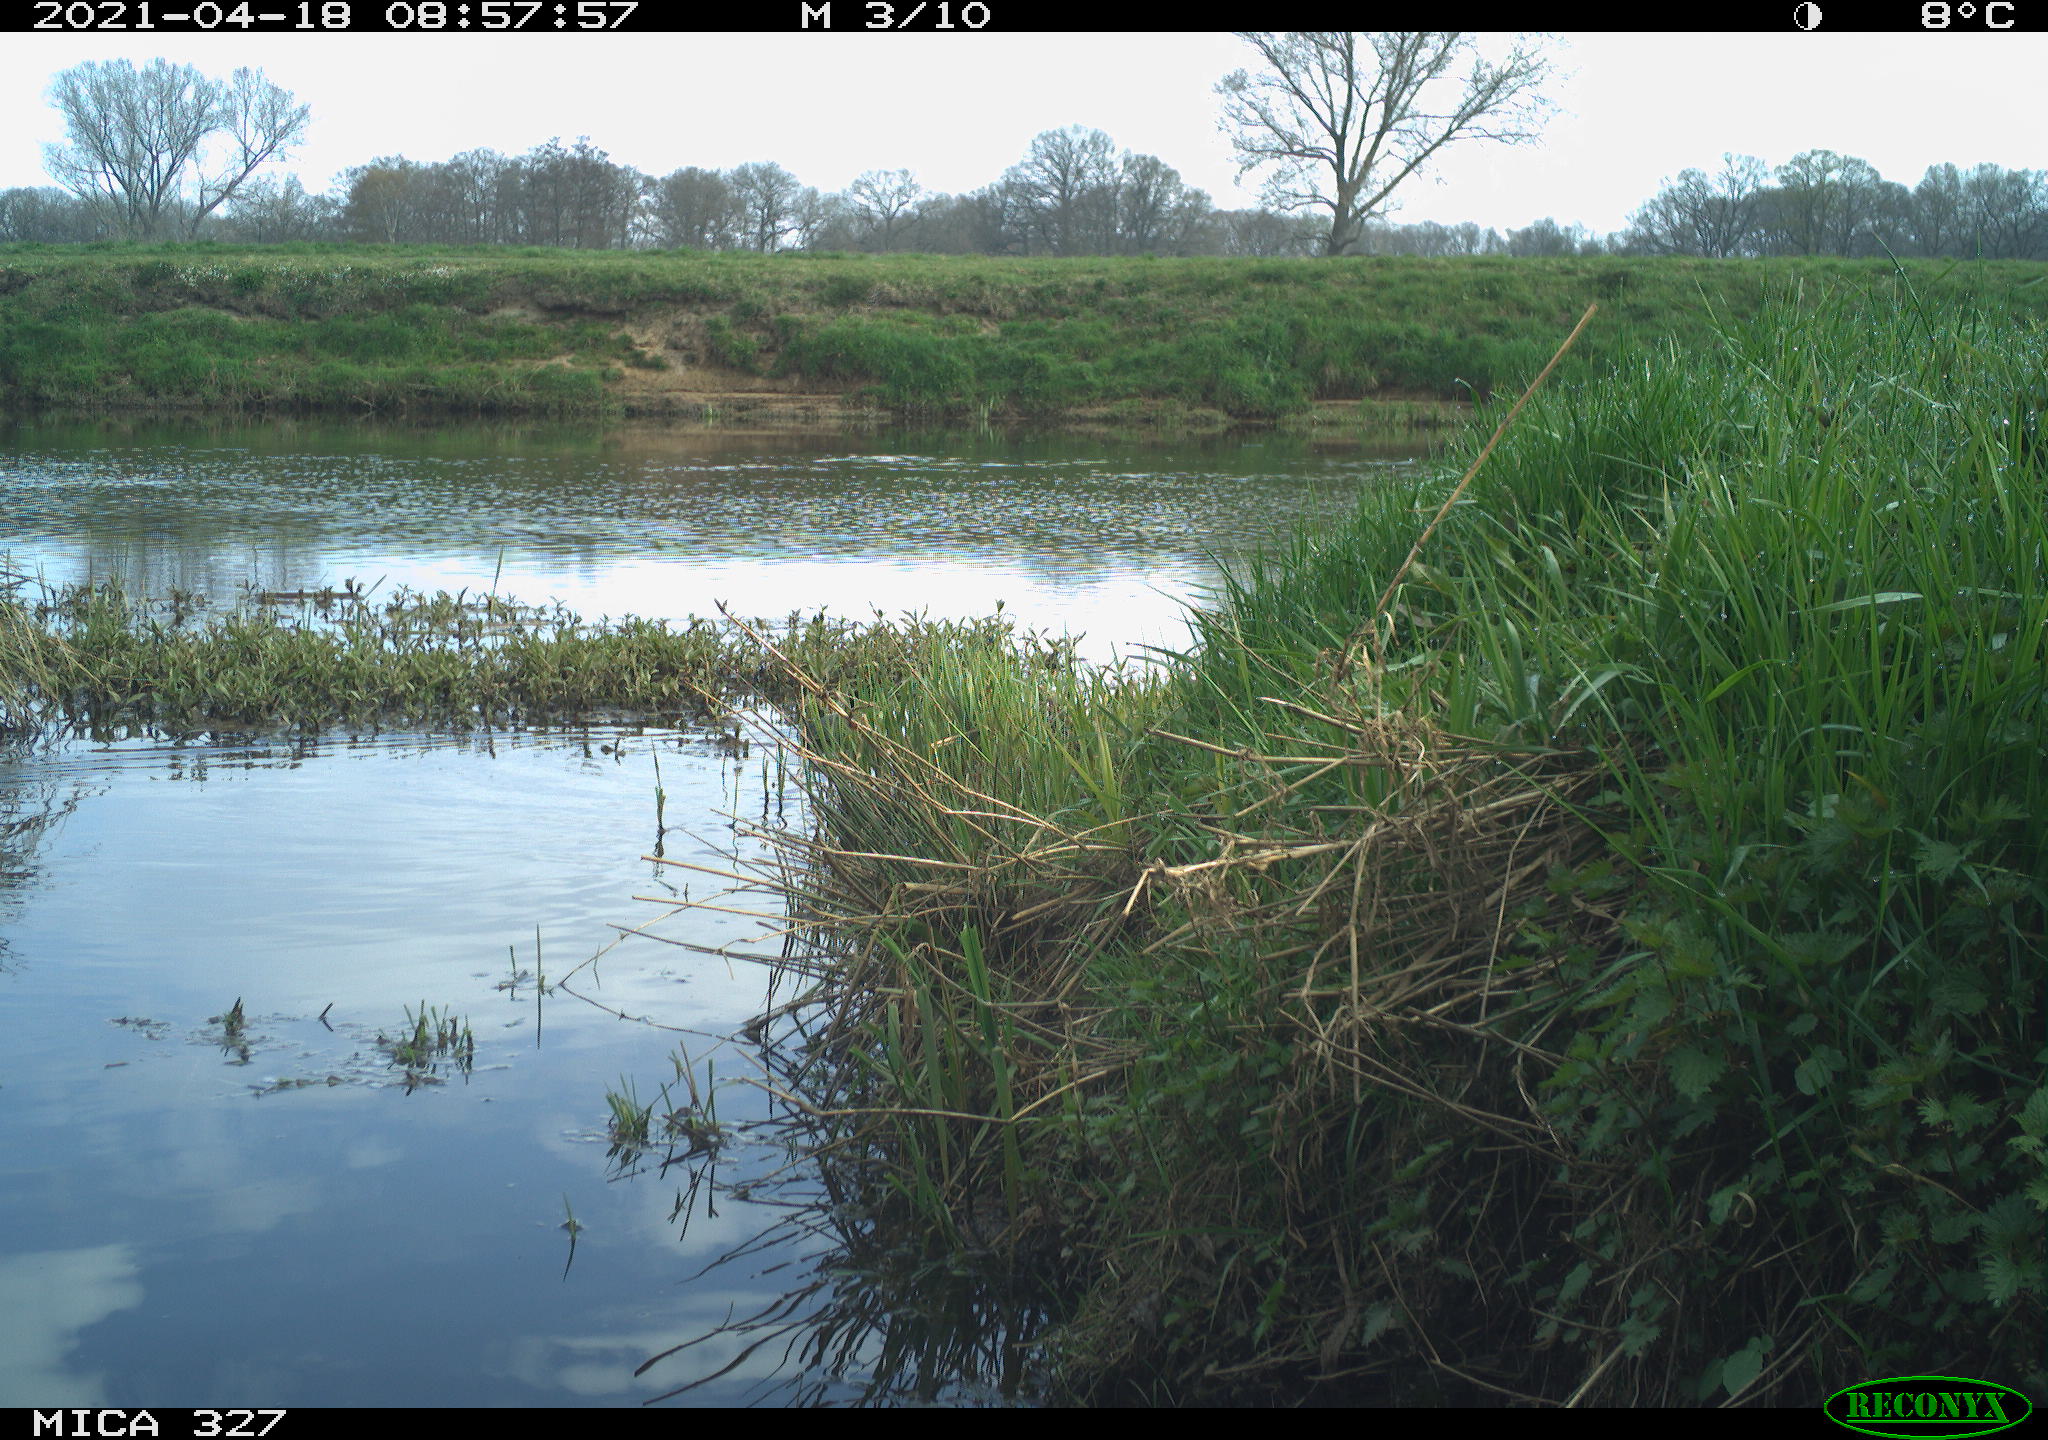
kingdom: Animalia
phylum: Chordata
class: Aves
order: Gruiformes
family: Rallidae
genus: Fulica
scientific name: Fulica atra
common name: Eurasian coot
